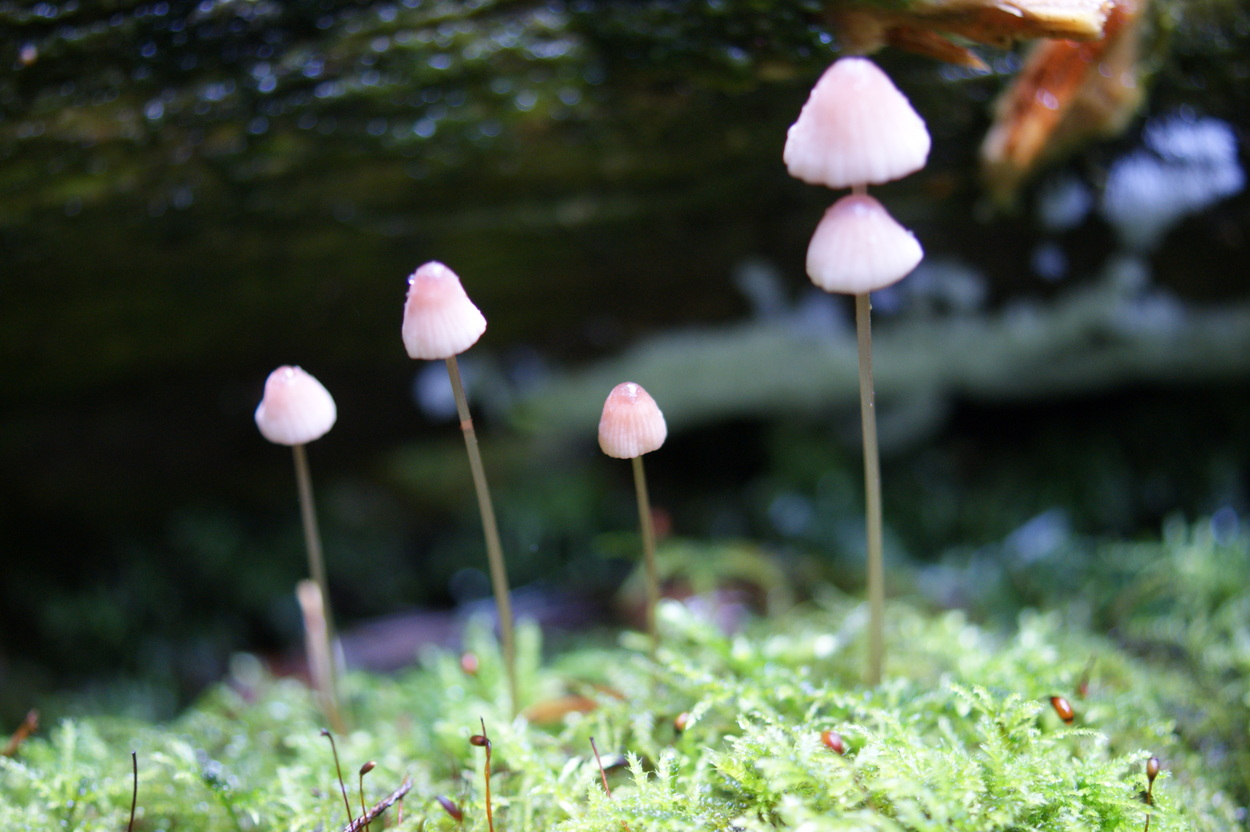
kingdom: Fungi
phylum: Basidiomycota
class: Agaricomycetes
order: Agaricales
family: Mycenaceae
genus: Mycena
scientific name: Mycena sanguinolenta
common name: rødmælket huesvamp
